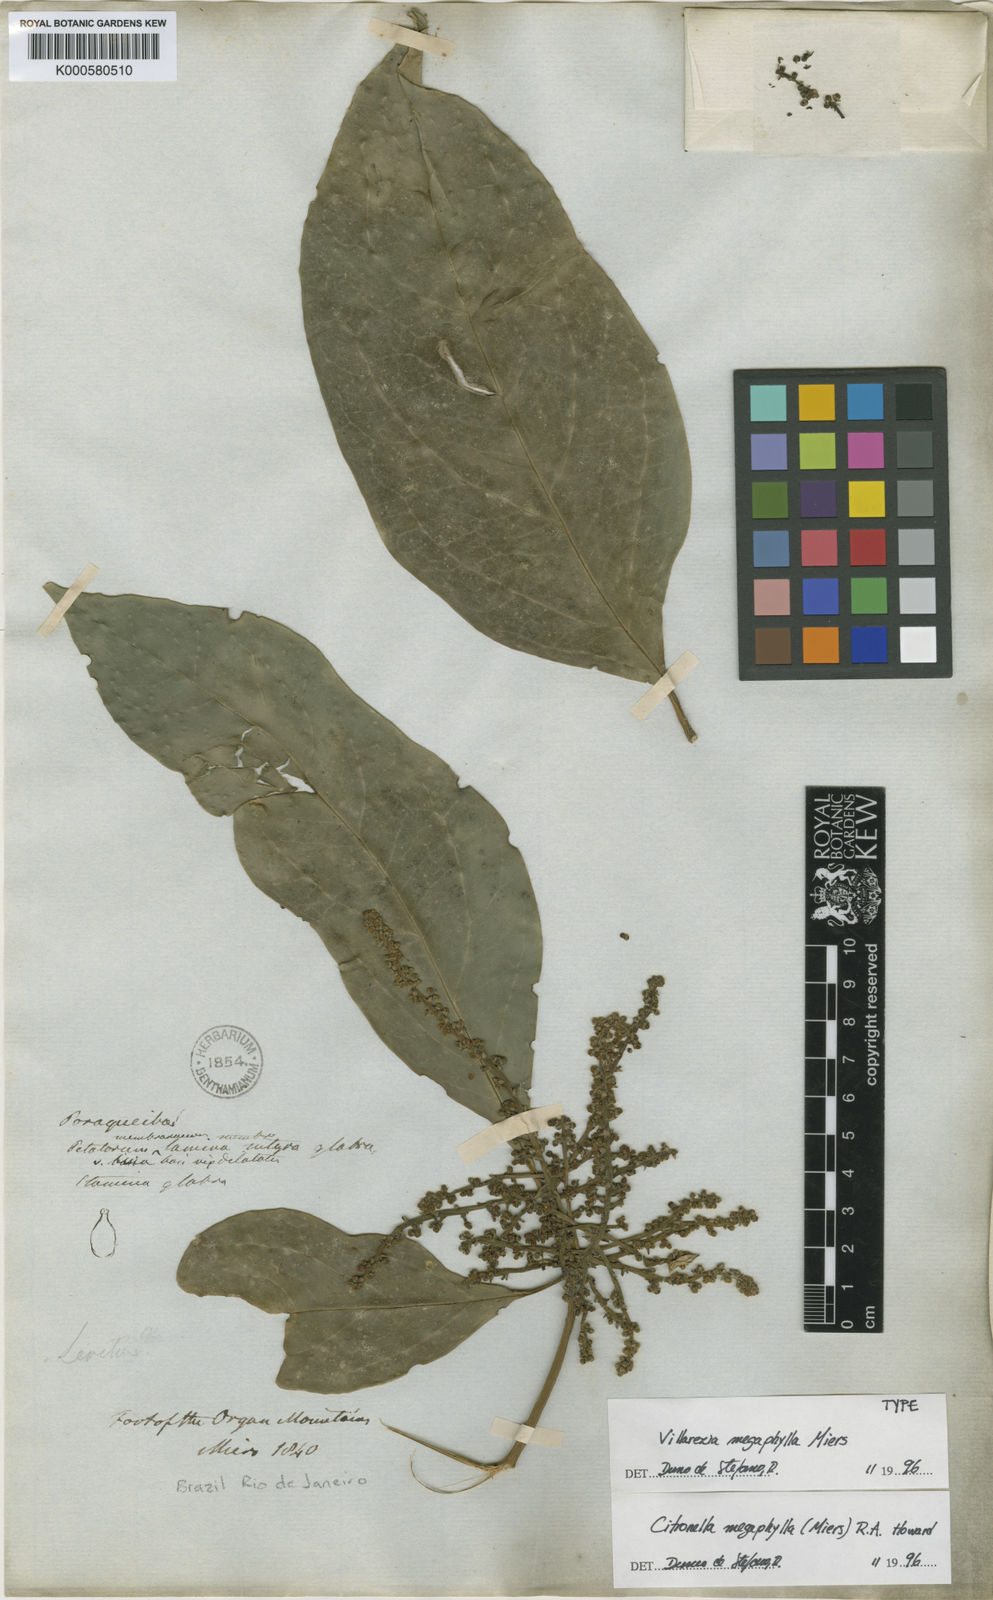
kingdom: Plantae
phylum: Tracheophyta
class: Magnoliopsida
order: Cardiopteridales
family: Cardiopteridaceae
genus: Citronella
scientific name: Citronella paniculata
